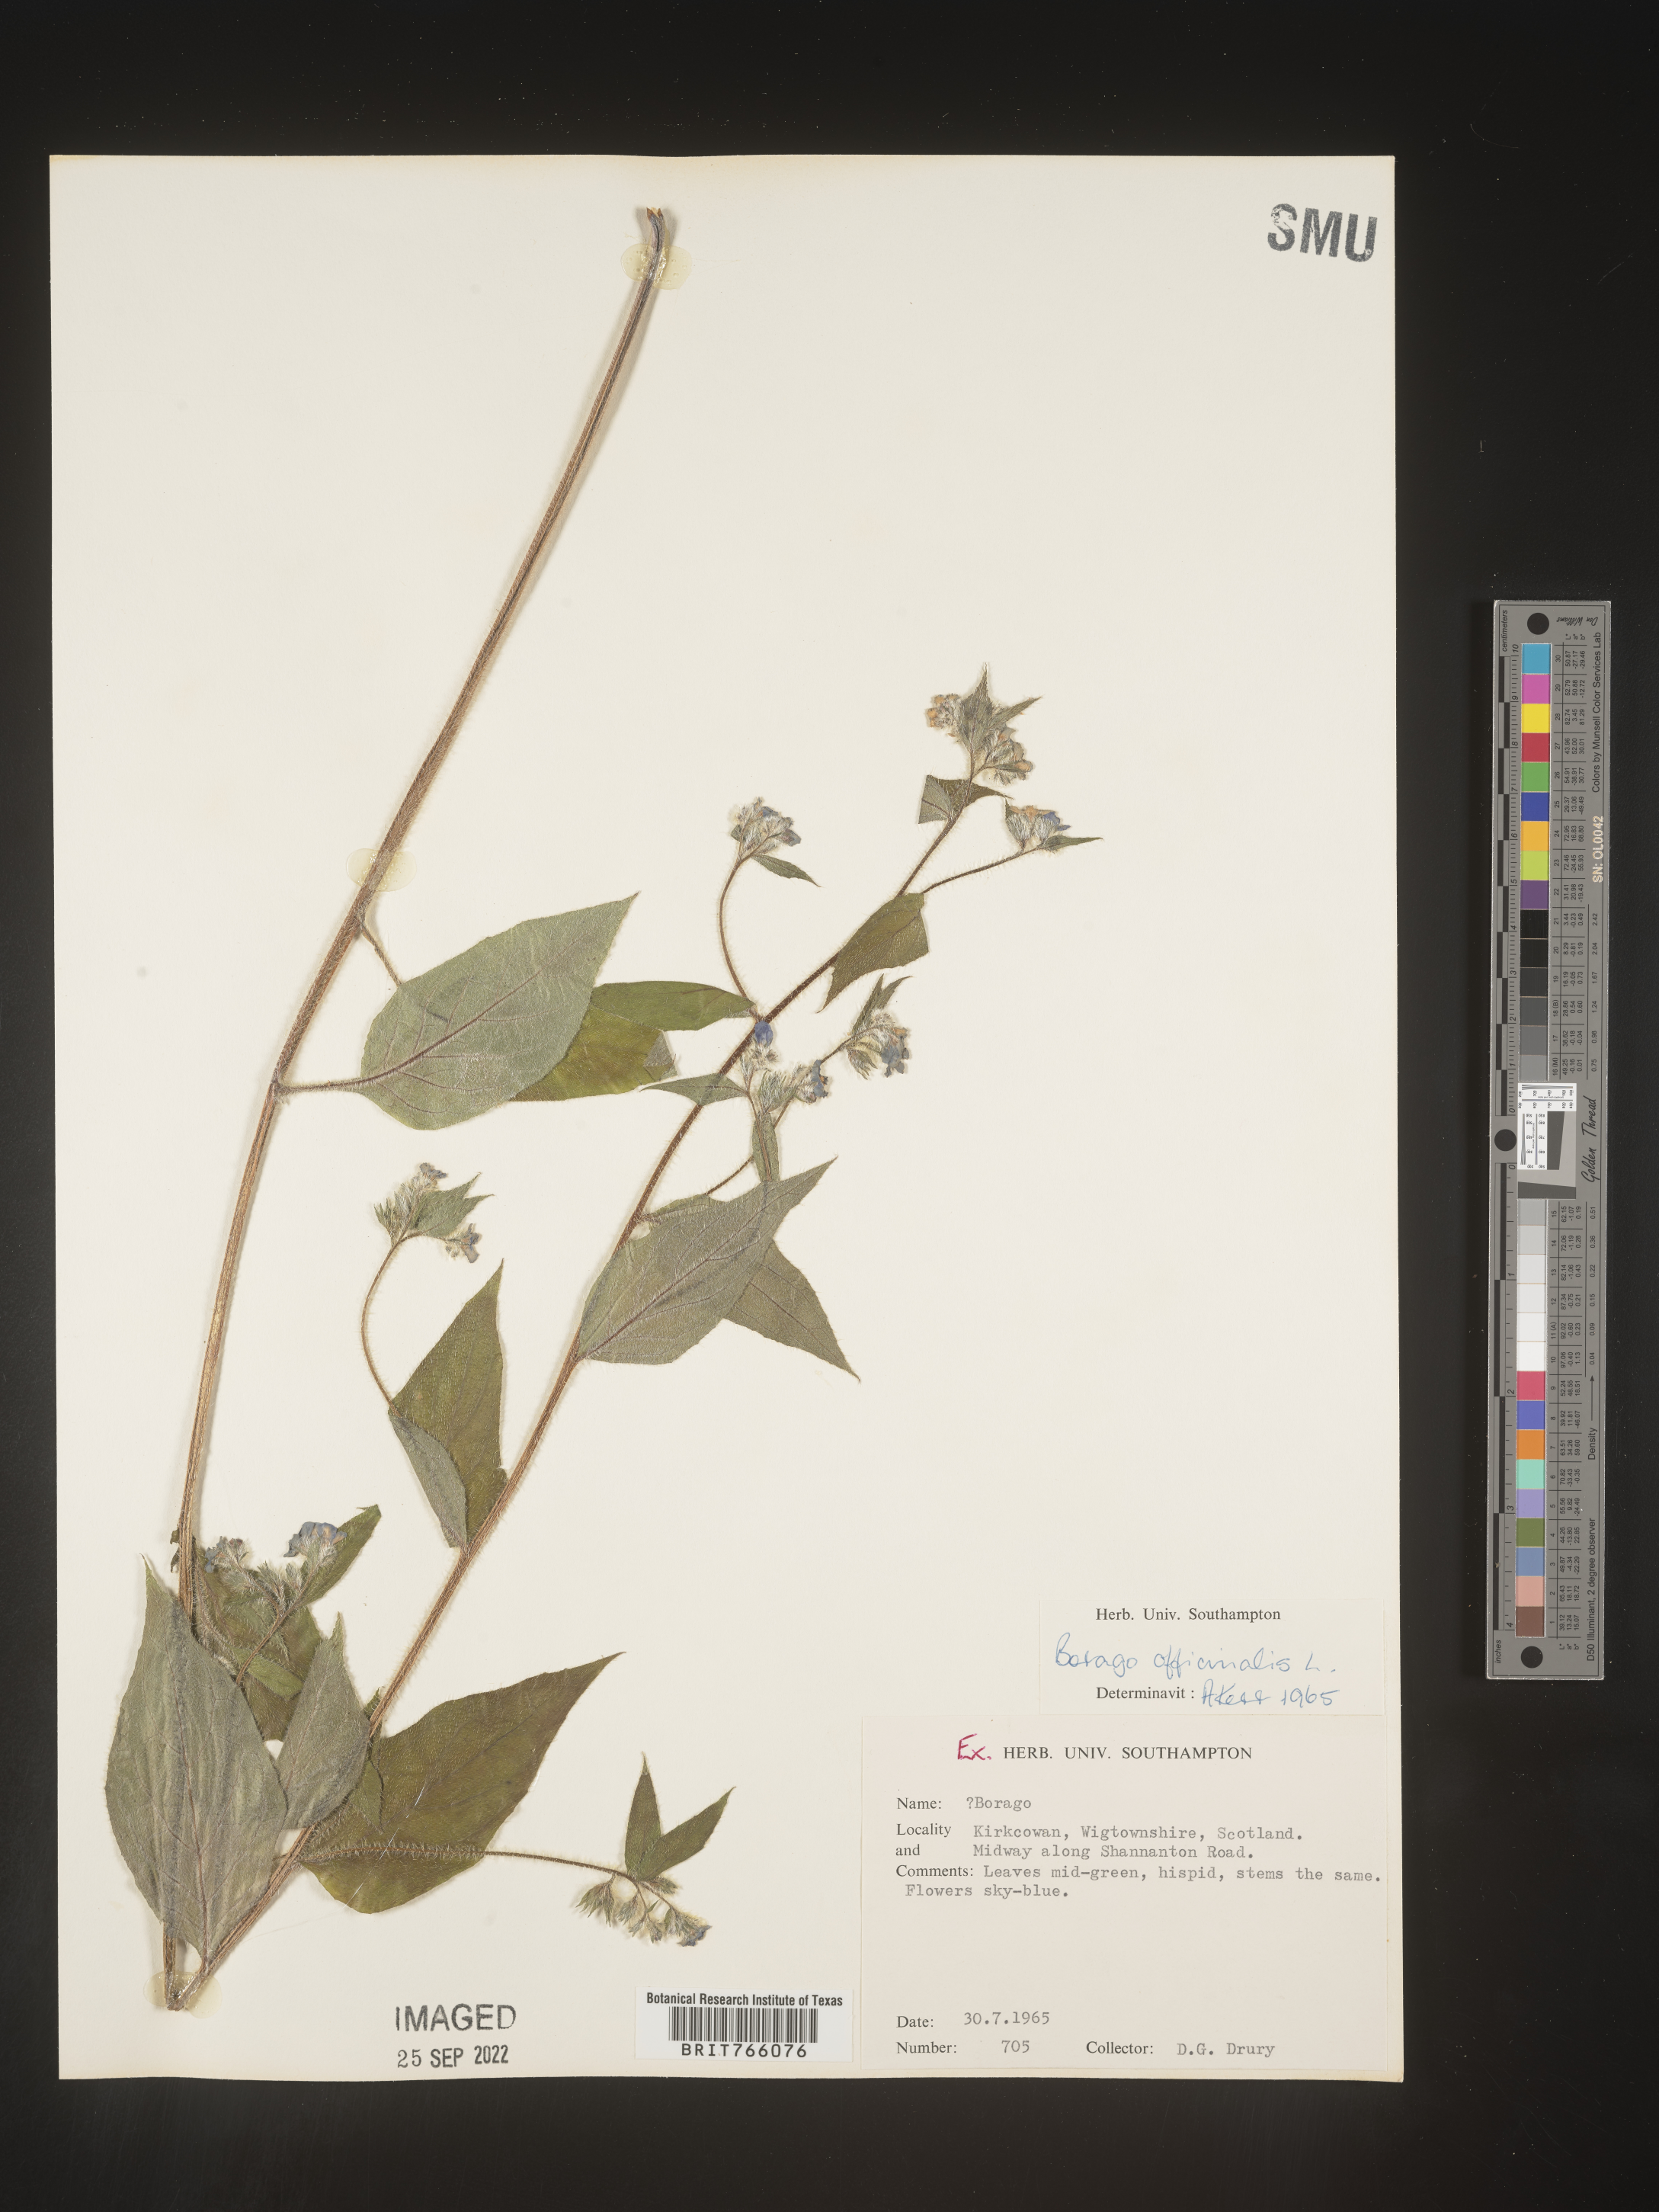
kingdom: Plantae
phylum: Tracheophyta
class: Magnoliopsida
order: Boraginales
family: Boraginaceae
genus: Borago
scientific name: Borago
